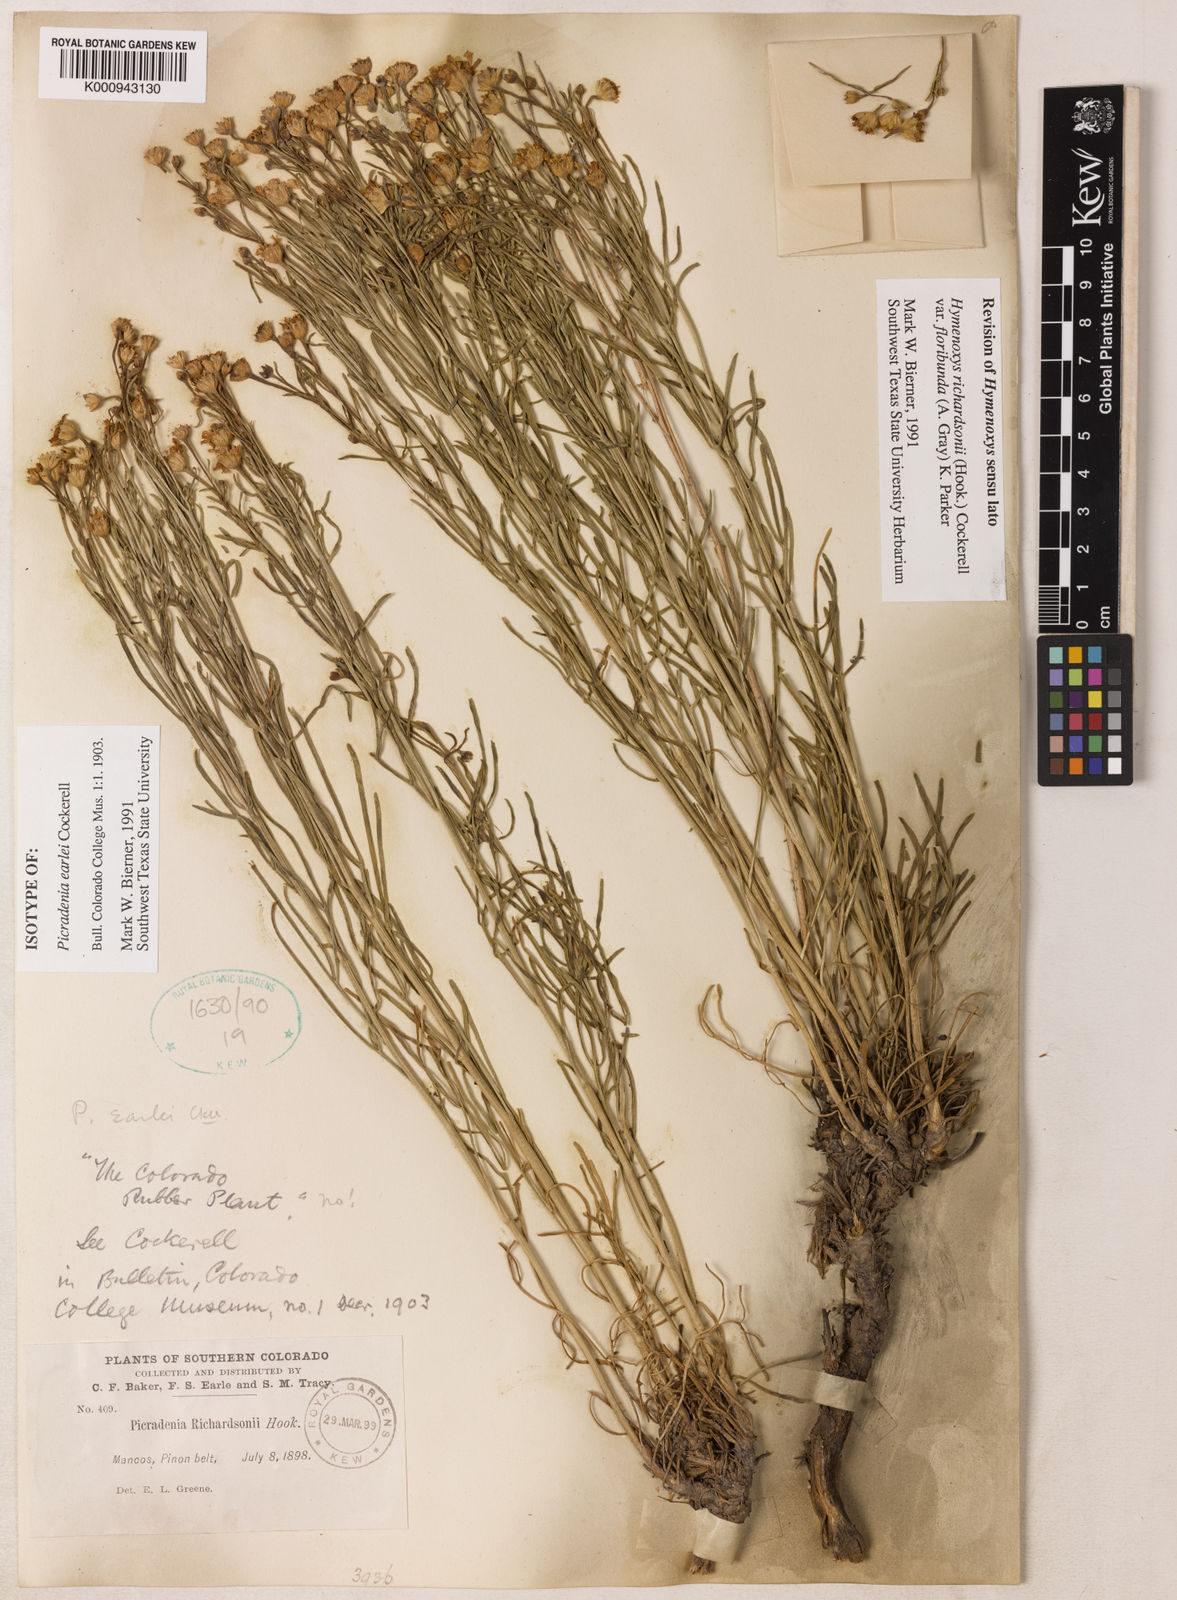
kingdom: Plantae
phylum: Tracheophyta
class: Magnoliopsida
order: Asterales
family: Asteraceae
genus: Hymenoxys
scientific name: Hymenoxys richardsonii
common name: Pingue rubberweed
